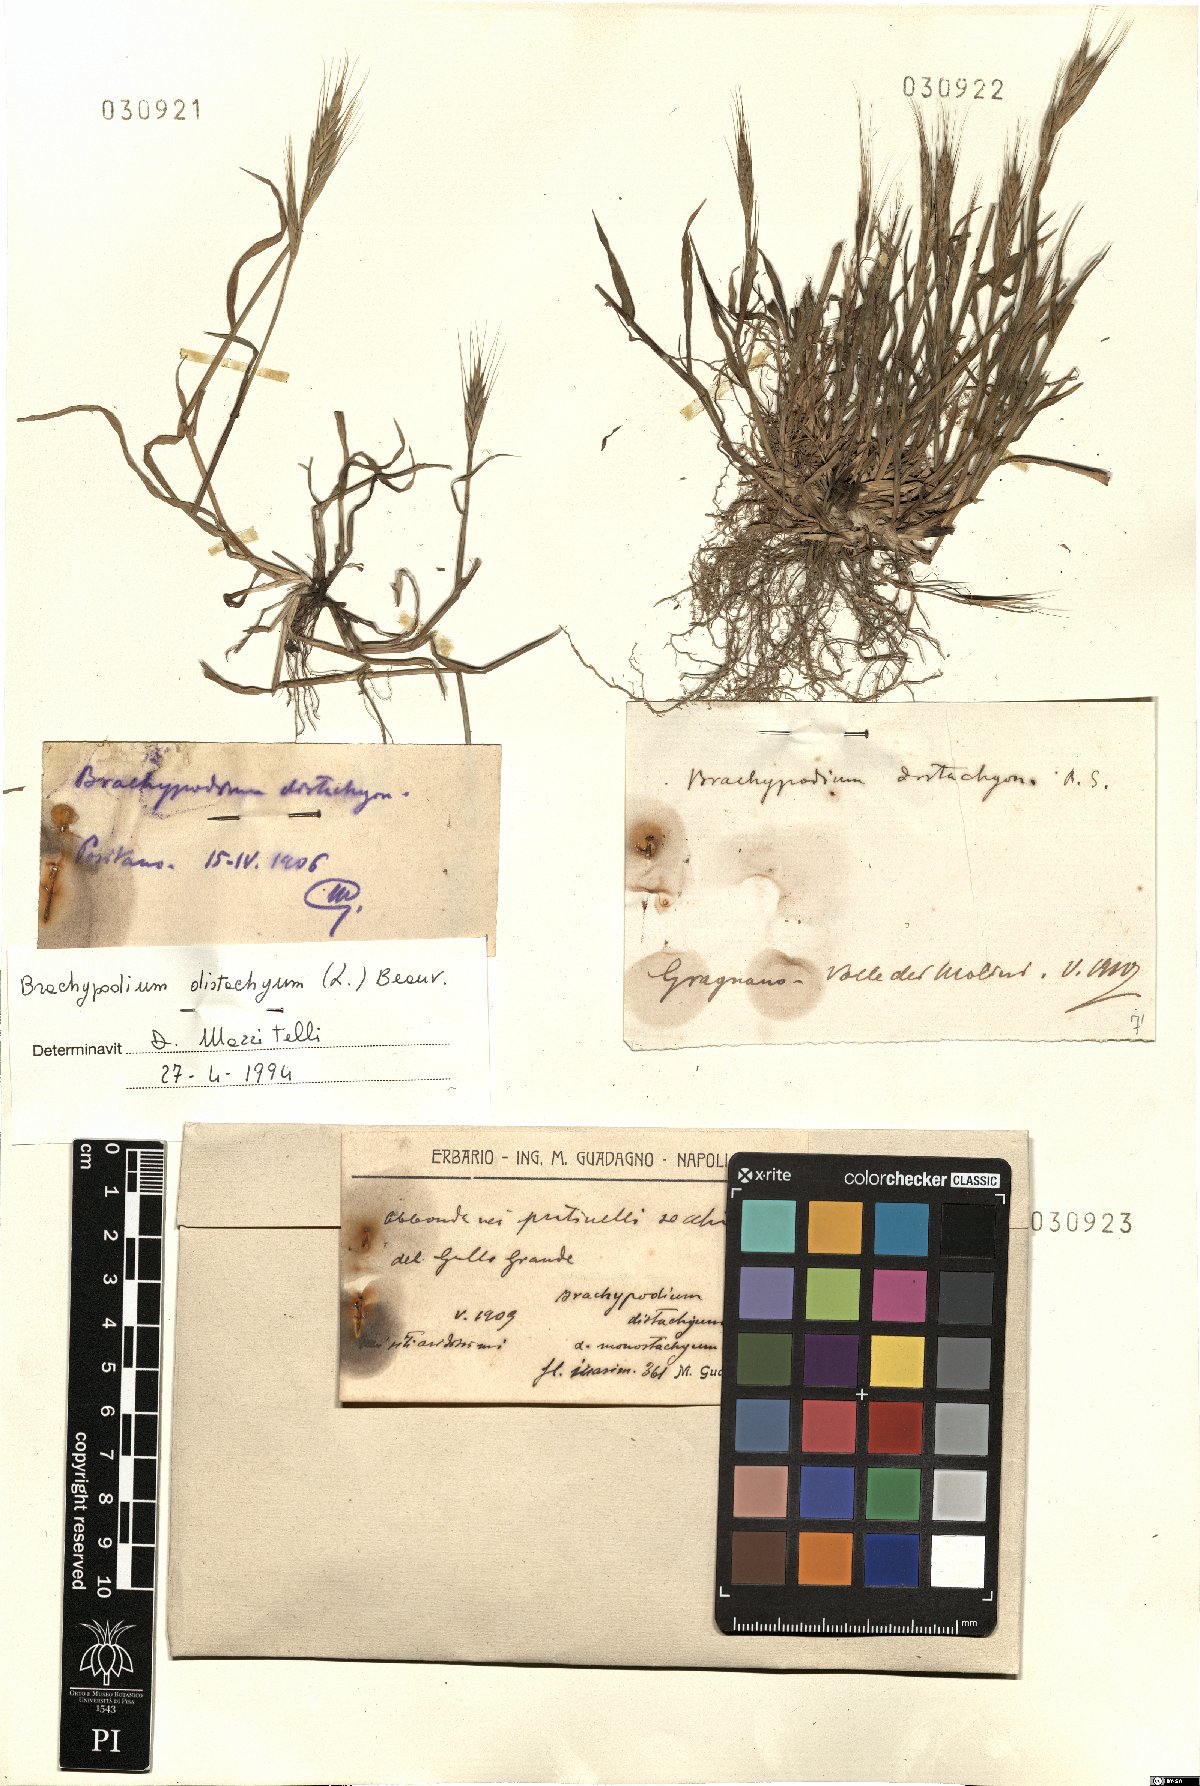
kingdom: Plantae
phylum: Tracheophyta
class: Liliopsida
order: Poales
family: Poaceae
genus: Brachypodium
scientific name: Brachypodium distachyon
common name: Stiff brome
